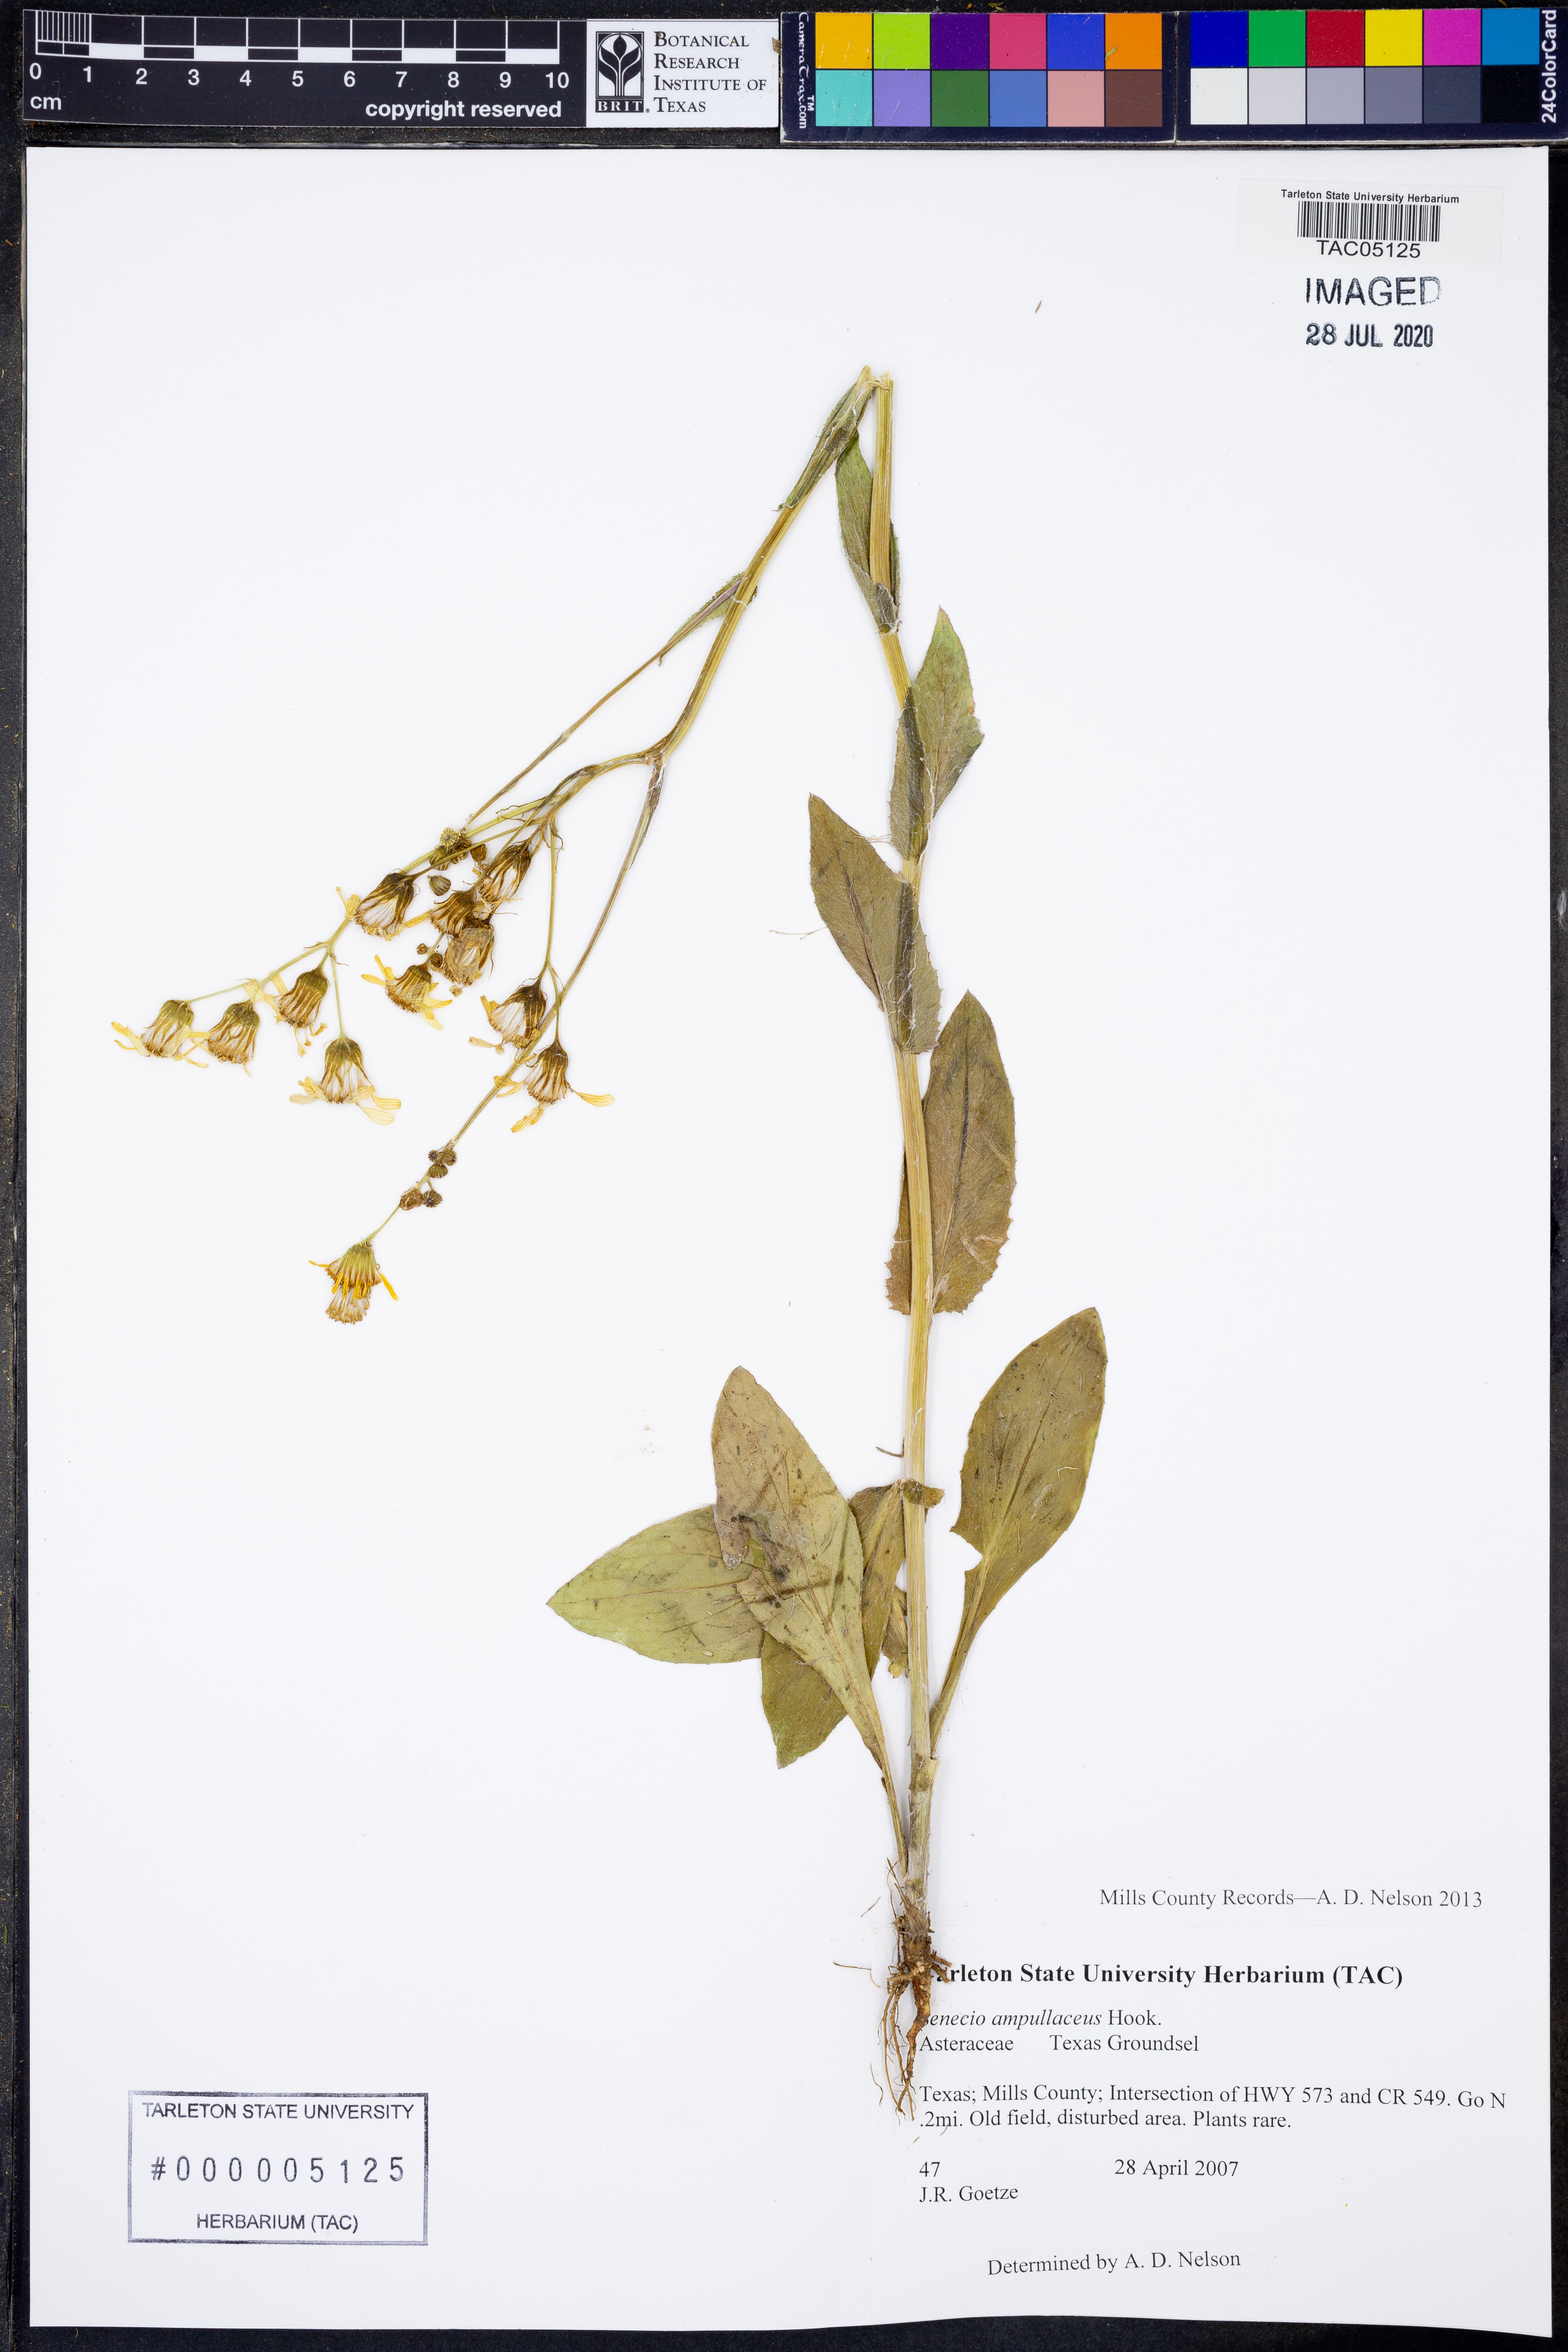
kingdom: Plantae
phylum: Tracheophyta
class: Magnoliopsida
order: Asterales
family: Asteraceae
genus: Senecio
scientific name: Senecio ampullaceus
